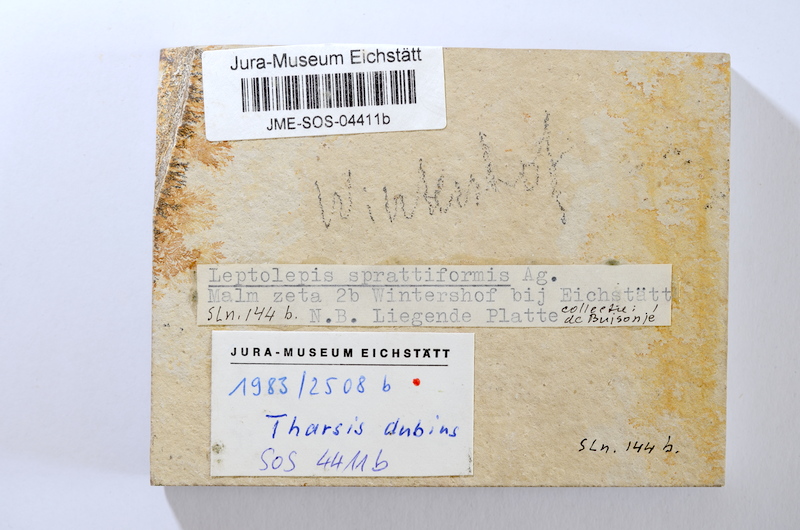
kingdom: Animalia
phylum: Chordata
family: Ascalaboidae
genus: Tharsis
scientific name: Tharsis dubius
